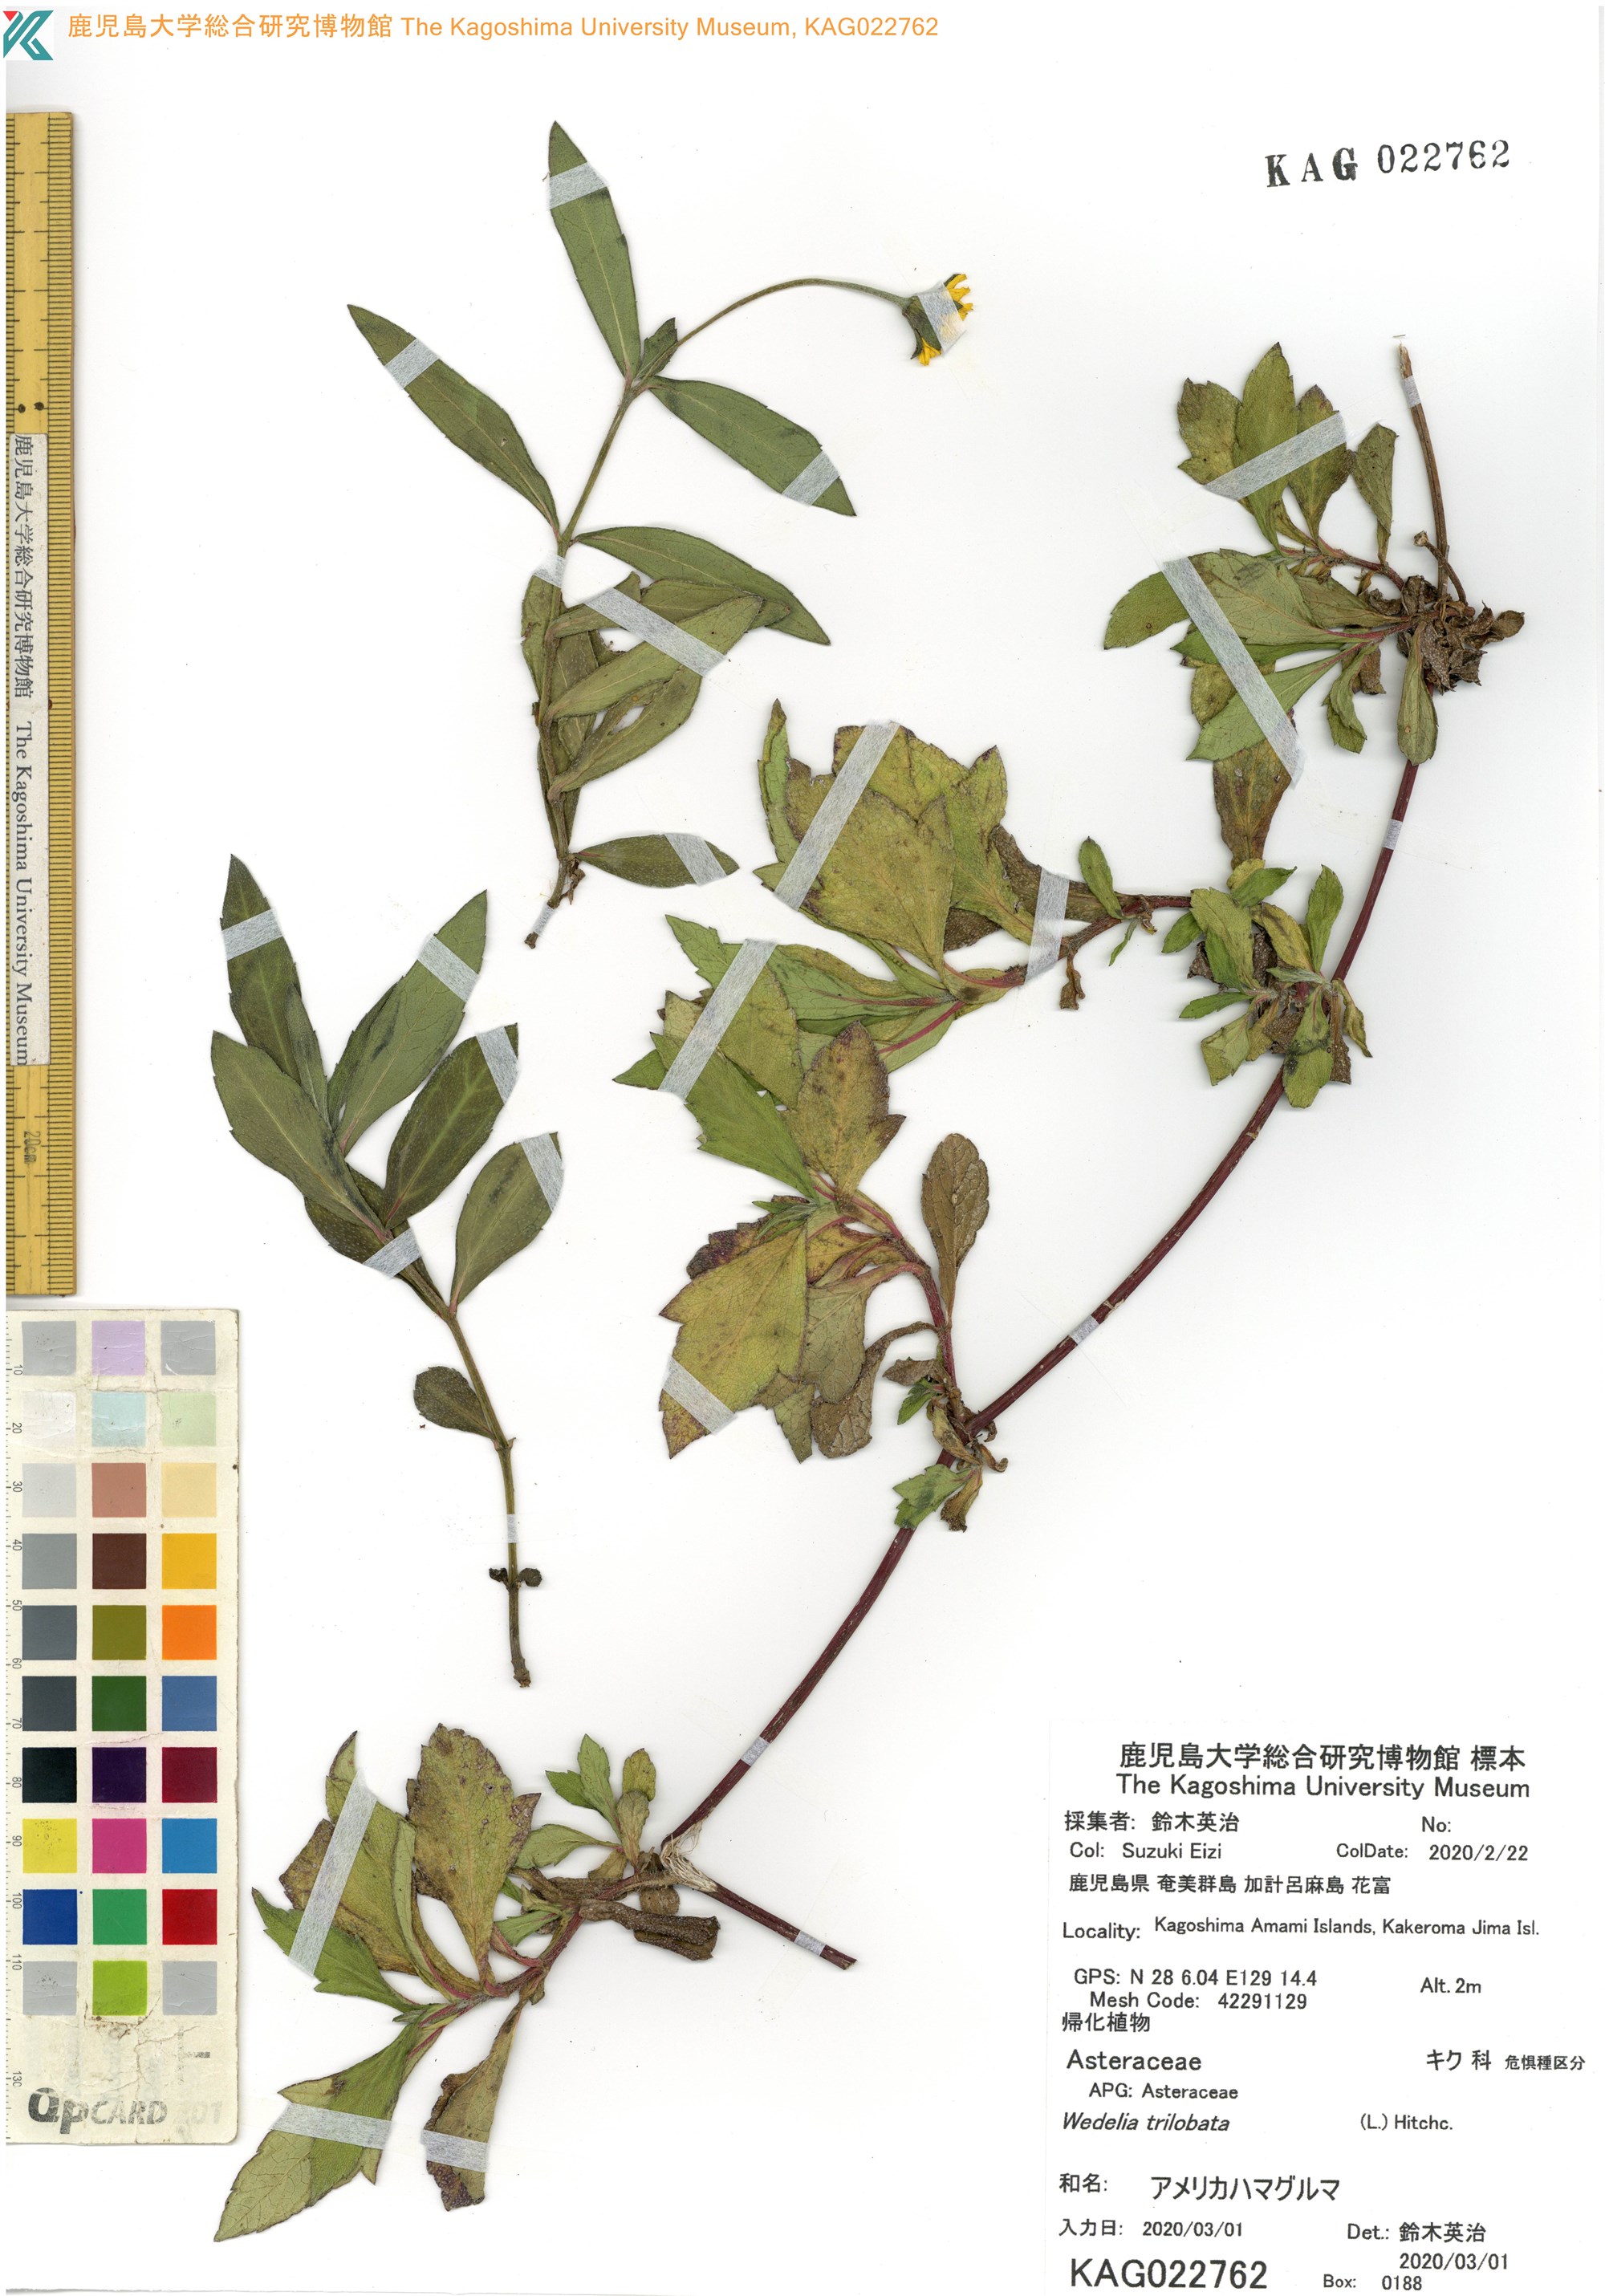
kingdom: Plantae
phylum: Tracheophyta
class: Magnoliopsida
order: Asterales
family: Asteraceae
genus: Sphagneticola
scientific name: Sphagneticola trilobata
